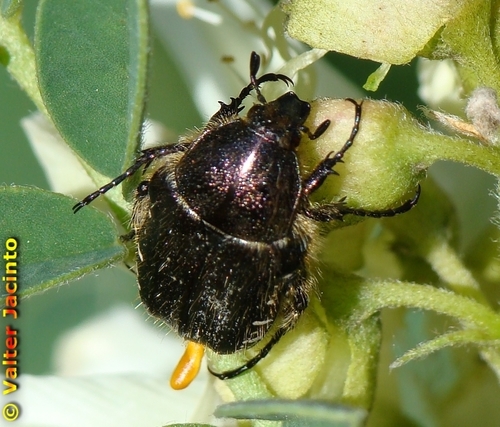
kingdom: Animalia
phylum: Arthropoda
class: Insecta
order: Coleoptera
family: Scarabaeidae
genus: Tropinota
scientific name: Tropinota squalida
